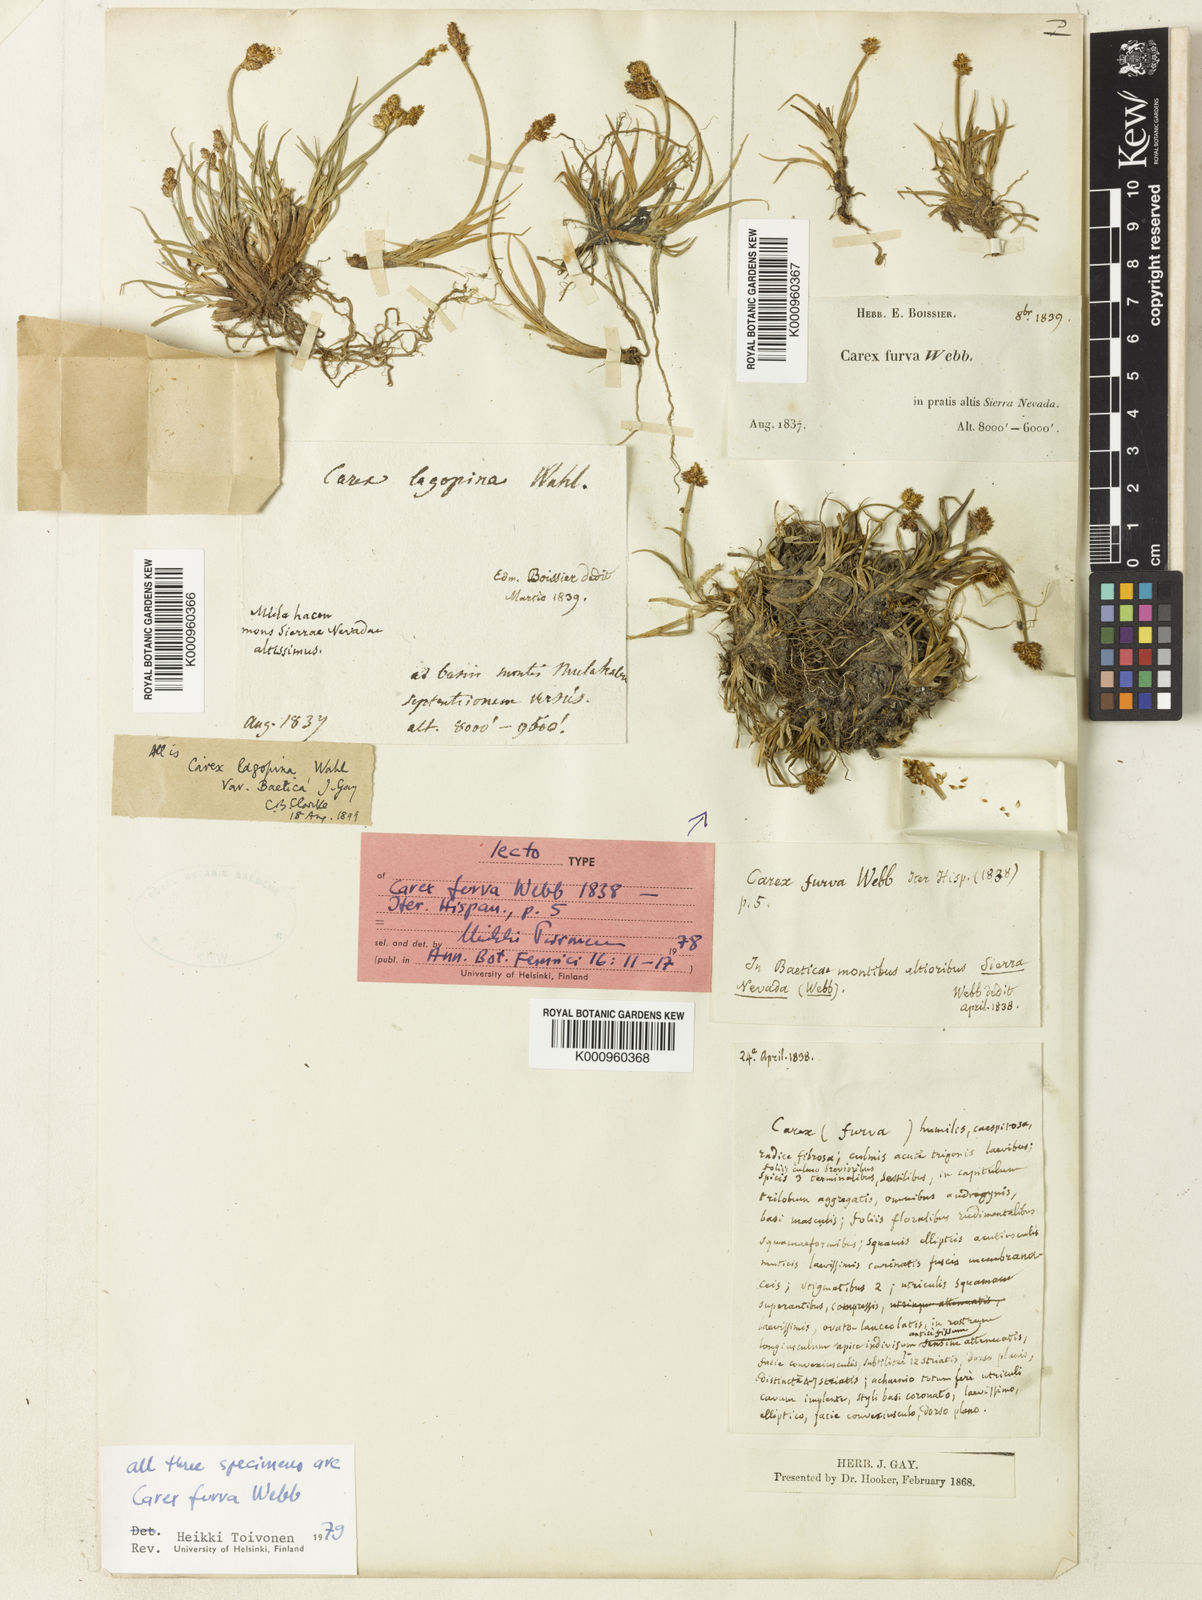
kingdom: Plantae
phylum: Tracheophyta
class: Liliopsida
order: Poales
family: Cyperaceae
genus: Carex
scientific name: Carex furva
